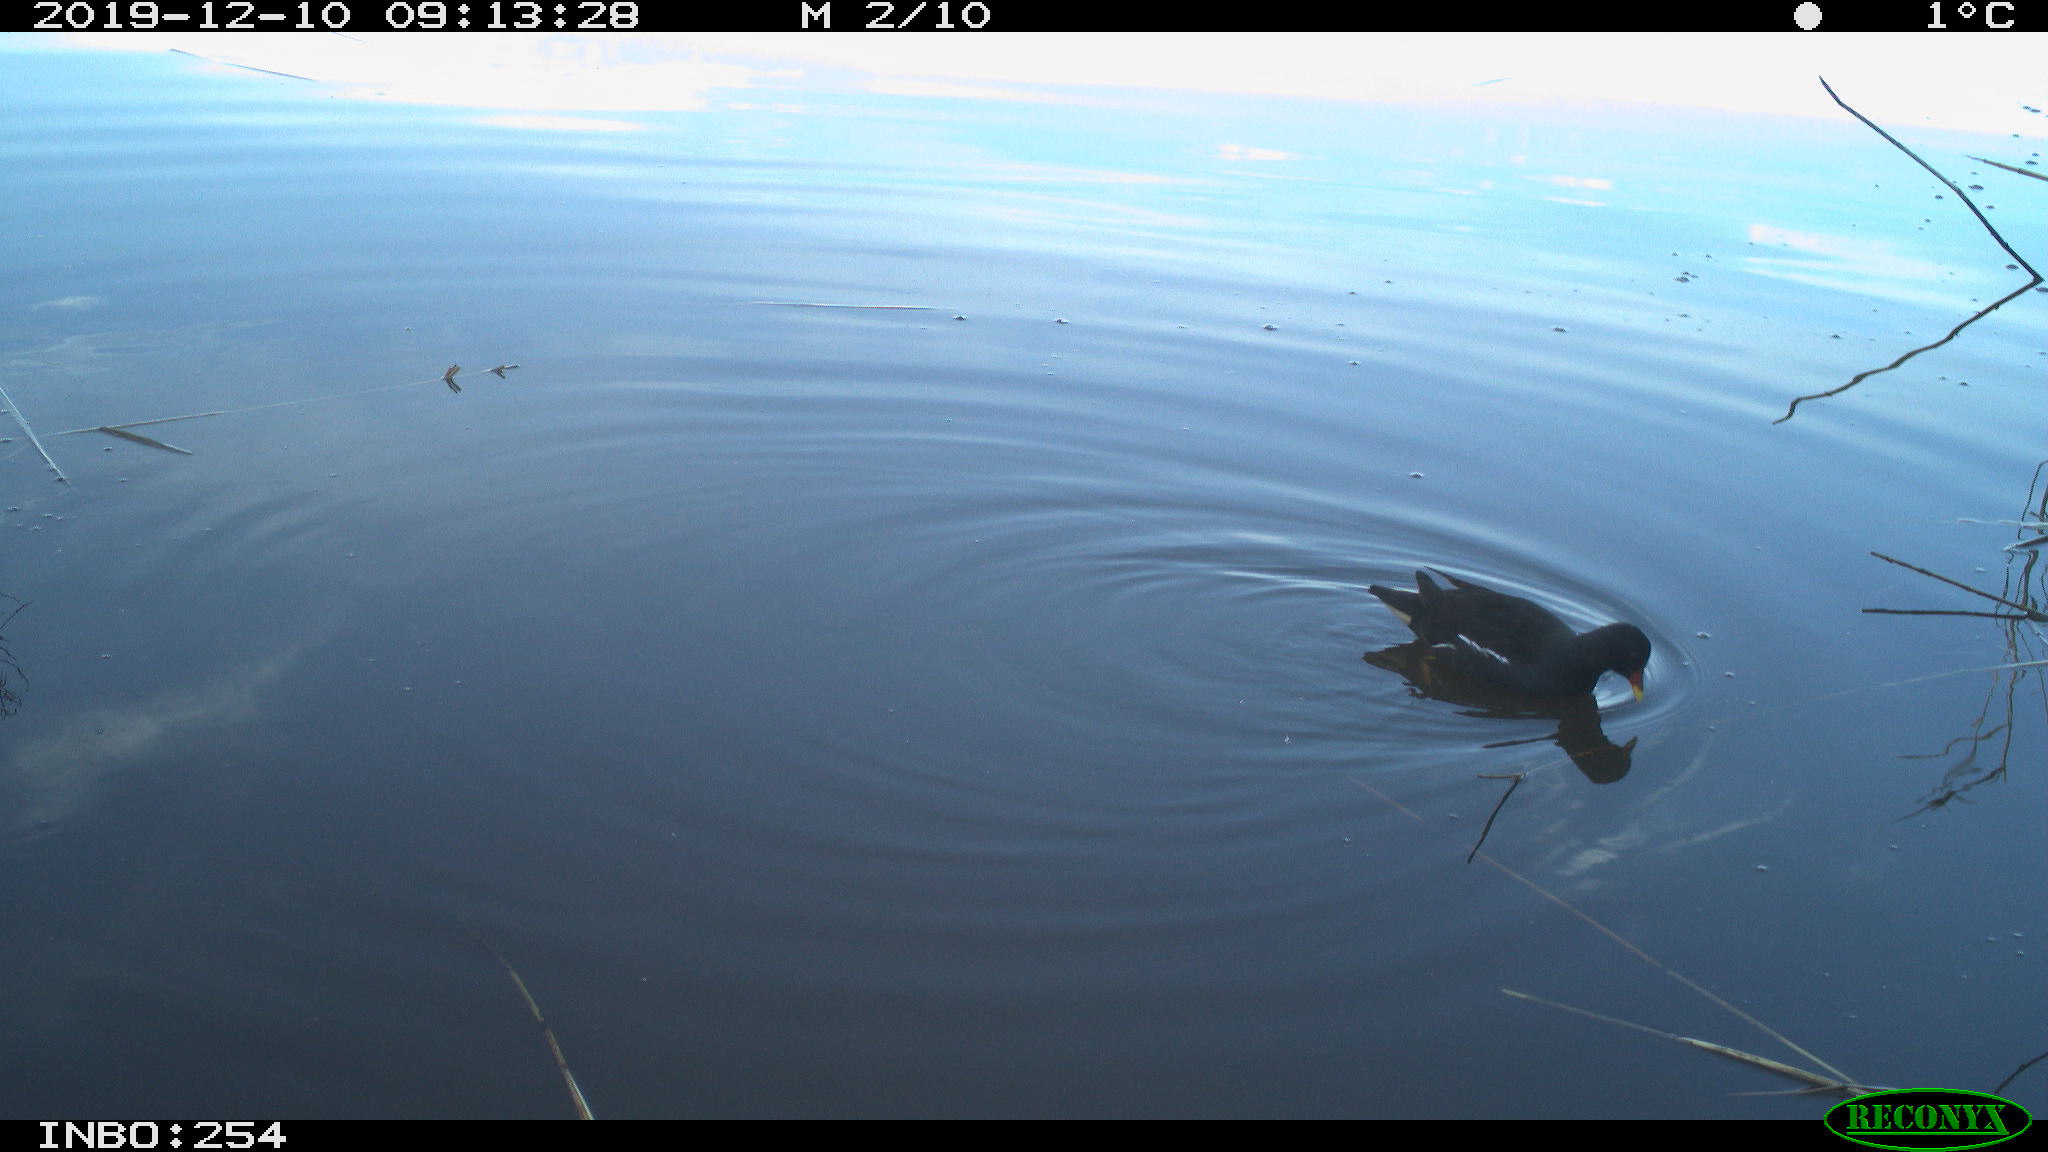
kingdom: Animalia
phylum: Chordata
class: Aves
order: Gruiformes
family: Rallidae
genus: Gallinula
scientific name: Gallinula chloropus
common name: Common moorhen
